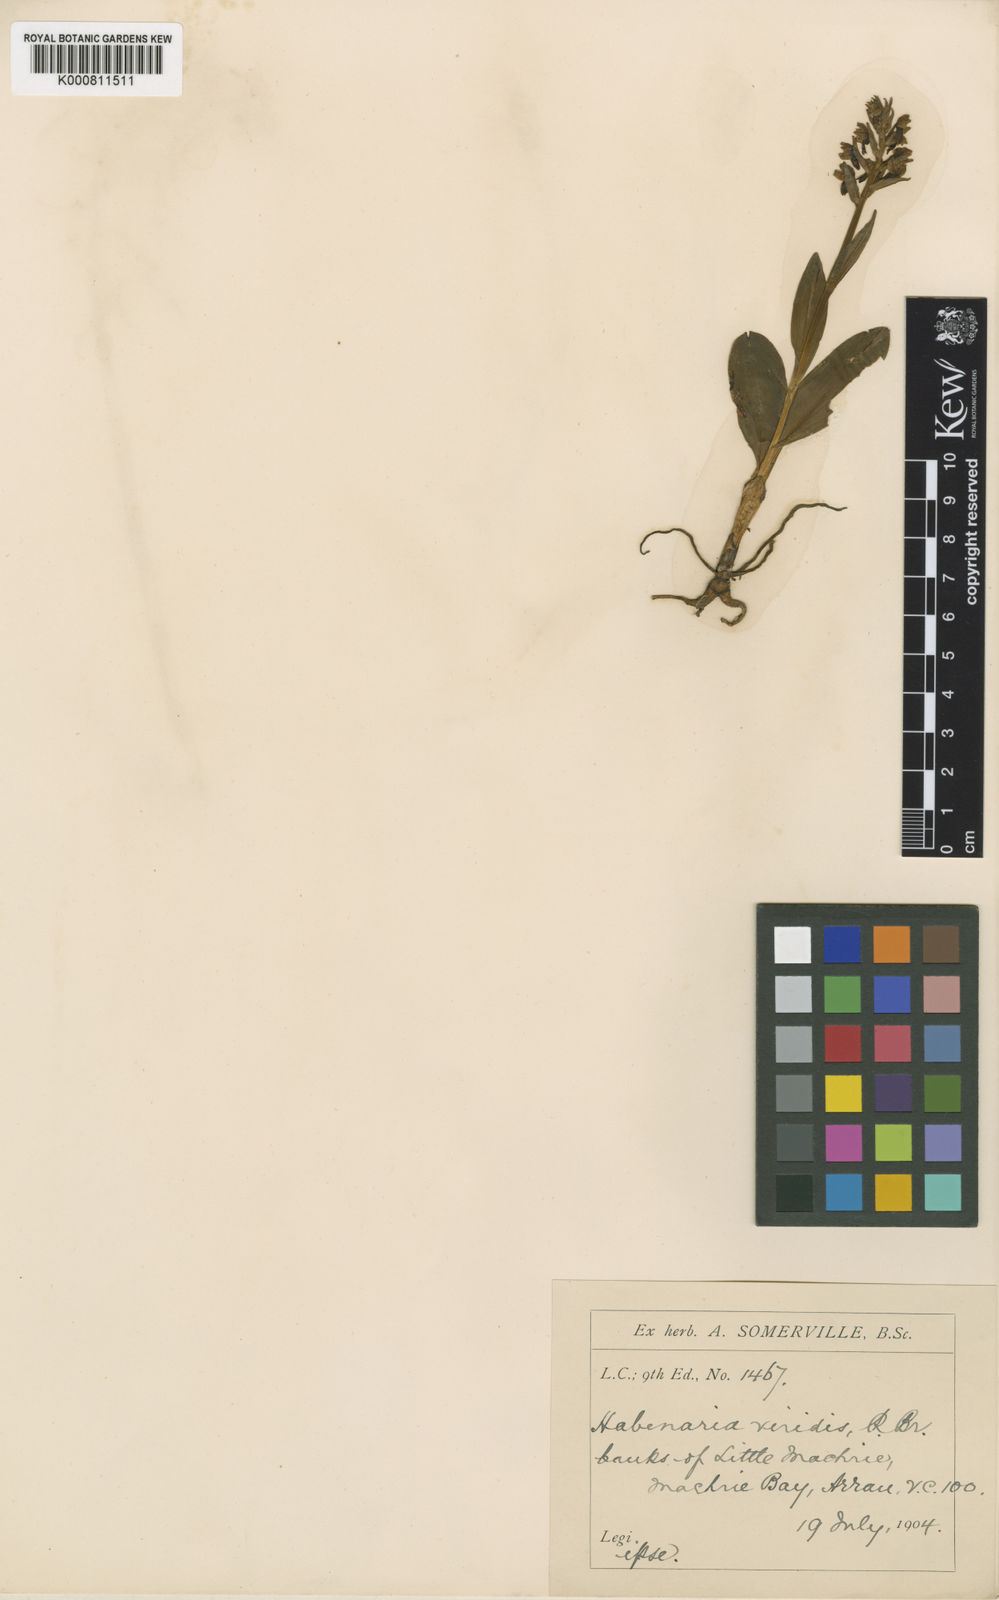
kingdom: Plantae
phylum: Tracheophyta
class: Liliopsida
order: Asparagales
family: Orchidaceae
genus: Dactylorhiza
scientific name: Dactylorhiza viridis
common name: Longbract frog orchid
